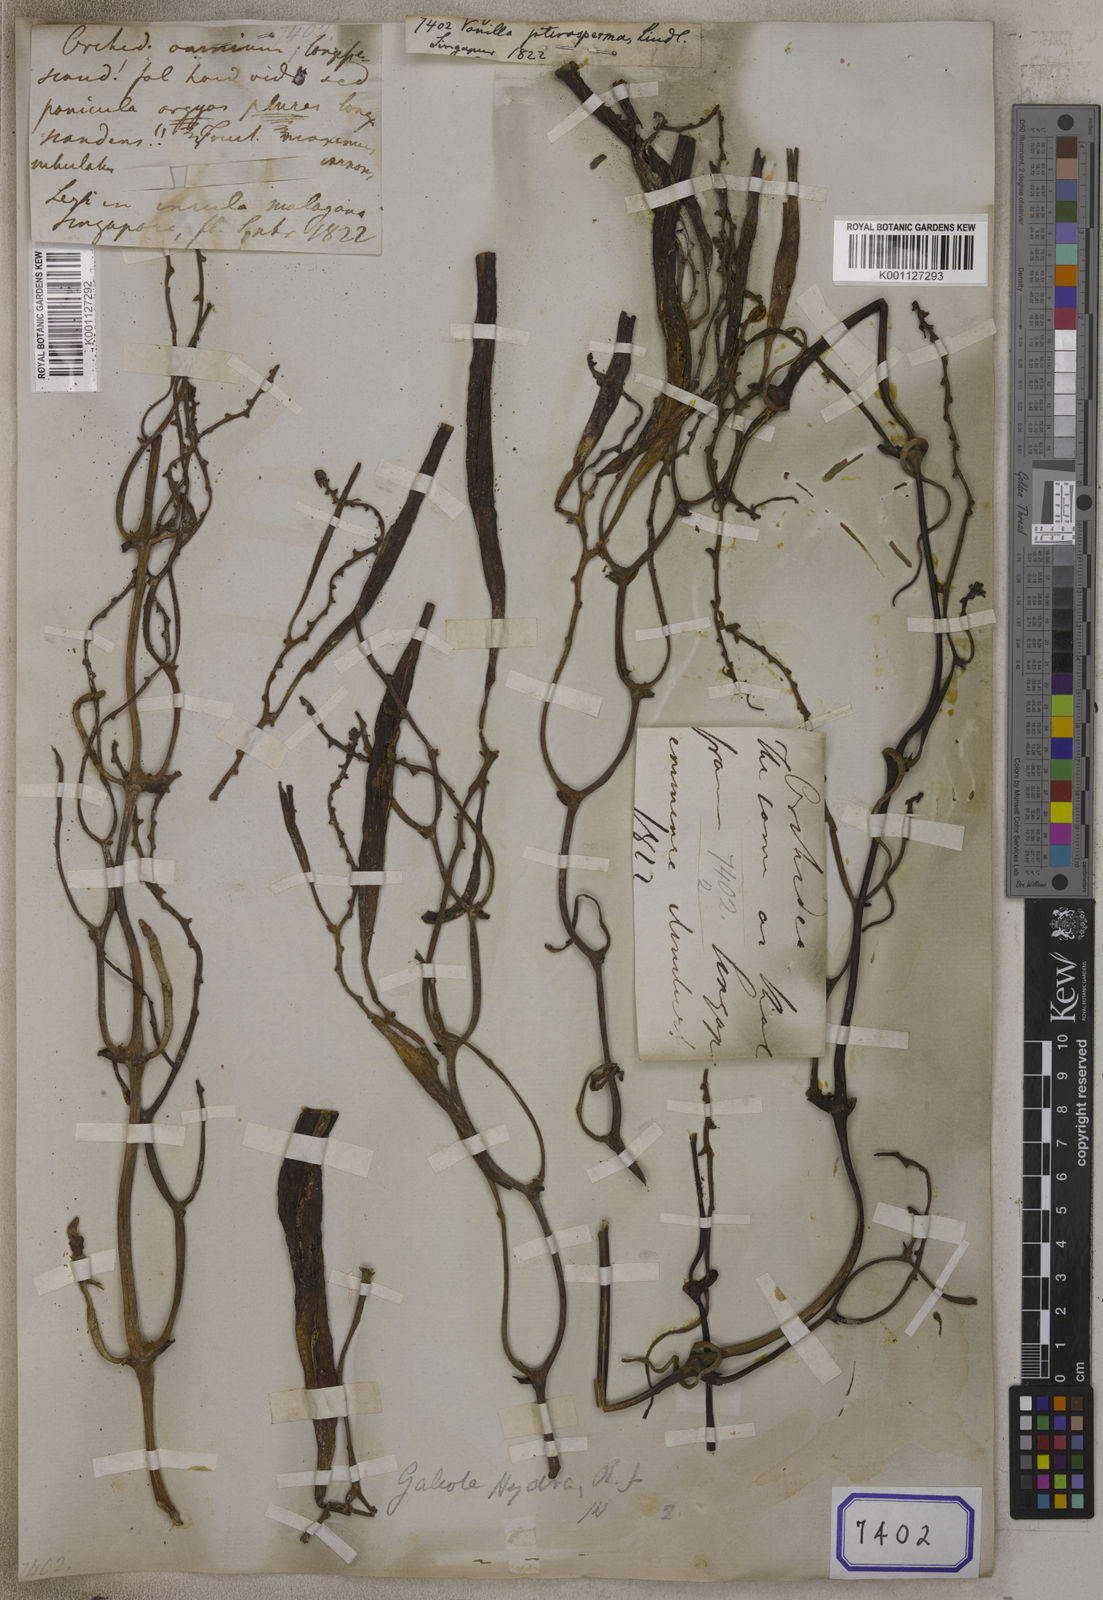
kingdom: Plantae
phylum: Tracheophyta
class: Liliopsida
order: Asparagales
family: Orchidaceae
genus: Vanilla
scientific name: Vanilla
